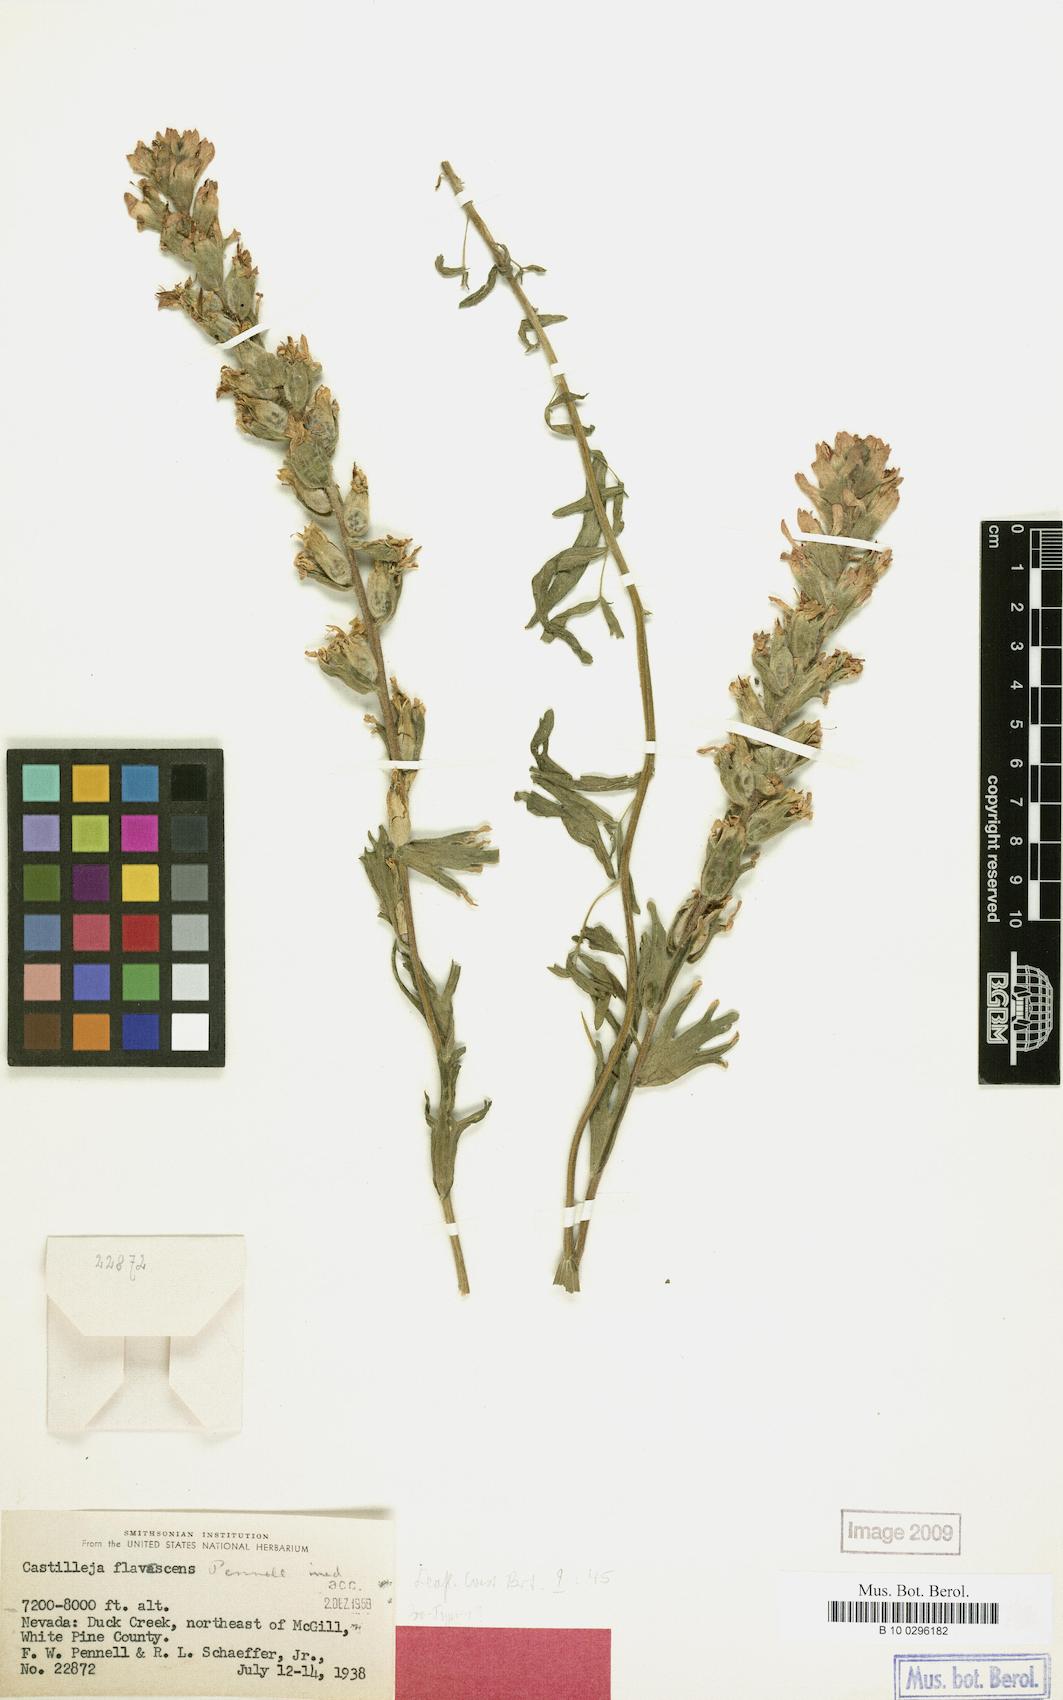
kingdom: Plantae
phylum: Tracheophyta
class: Magnoliopsida
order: Lamiales
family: Orobanchaceae
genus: Castilleja
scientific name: Castilleja angustifolia
